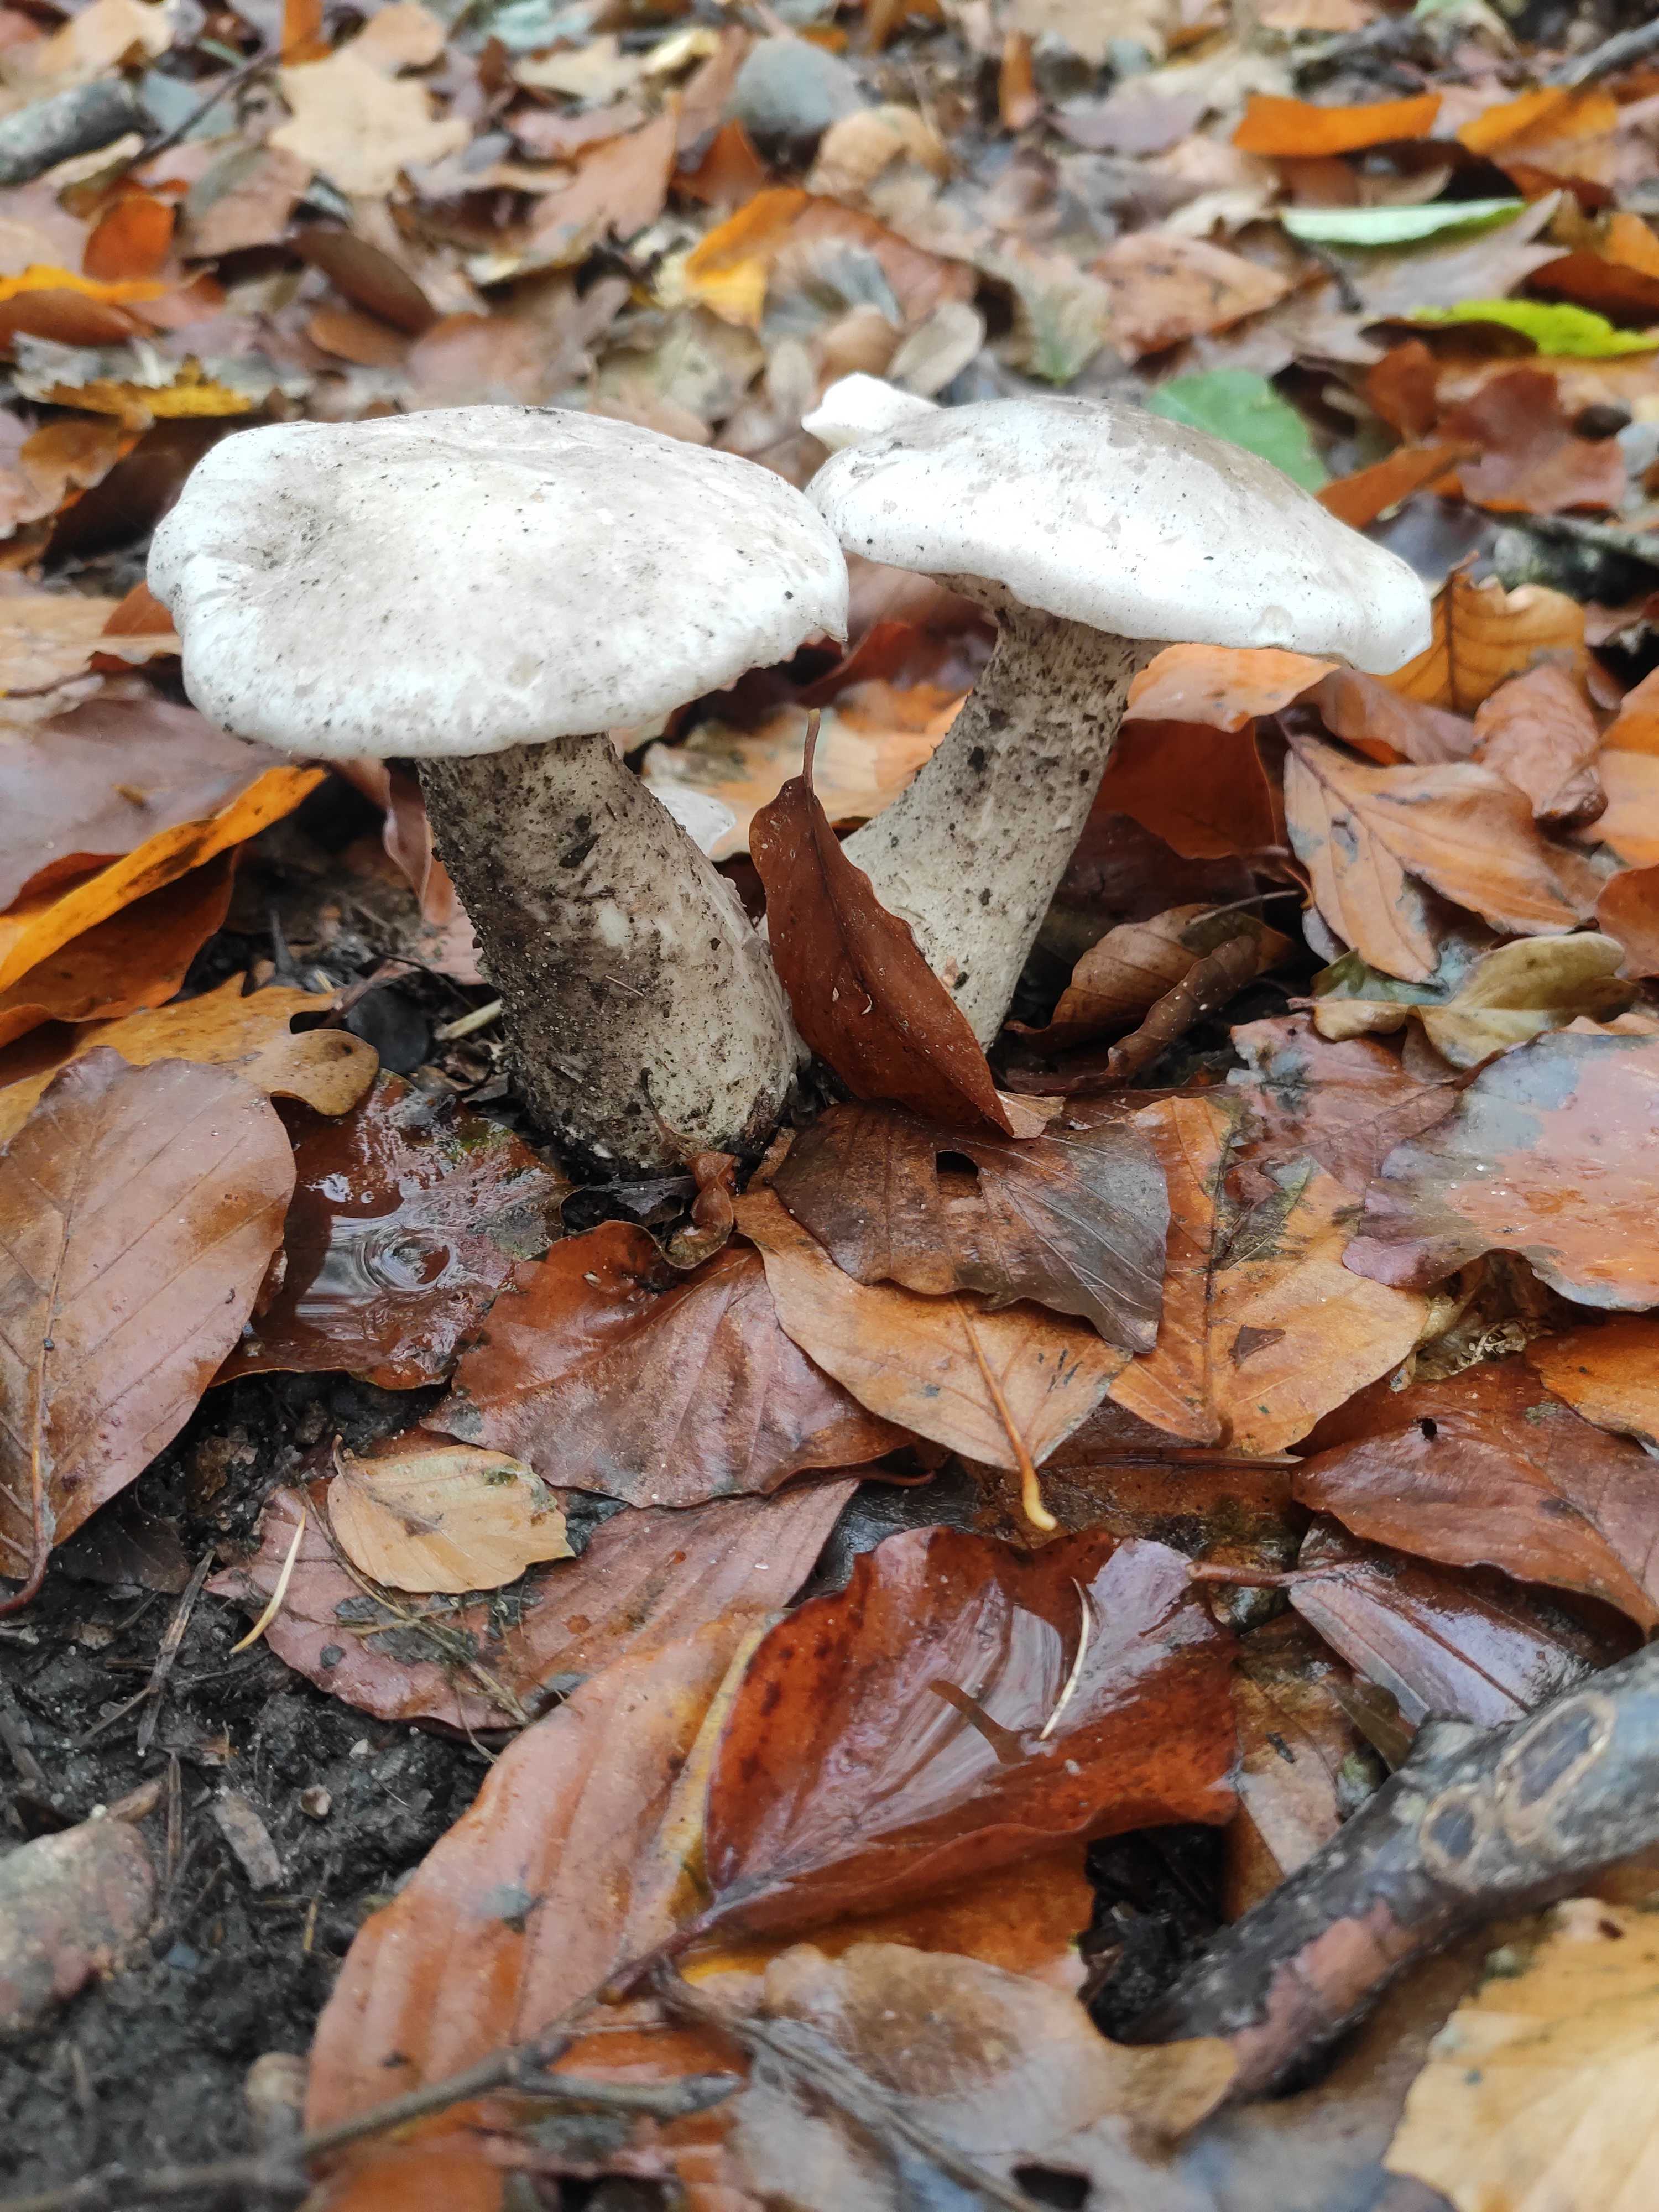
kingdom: Fungi
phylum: Basidiomycota
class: Agaricomycetes
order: Agaricales
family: Tricholomataceae
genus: Clitocybe
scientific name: Clitocybe nebularis
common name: tåge-tragthat
